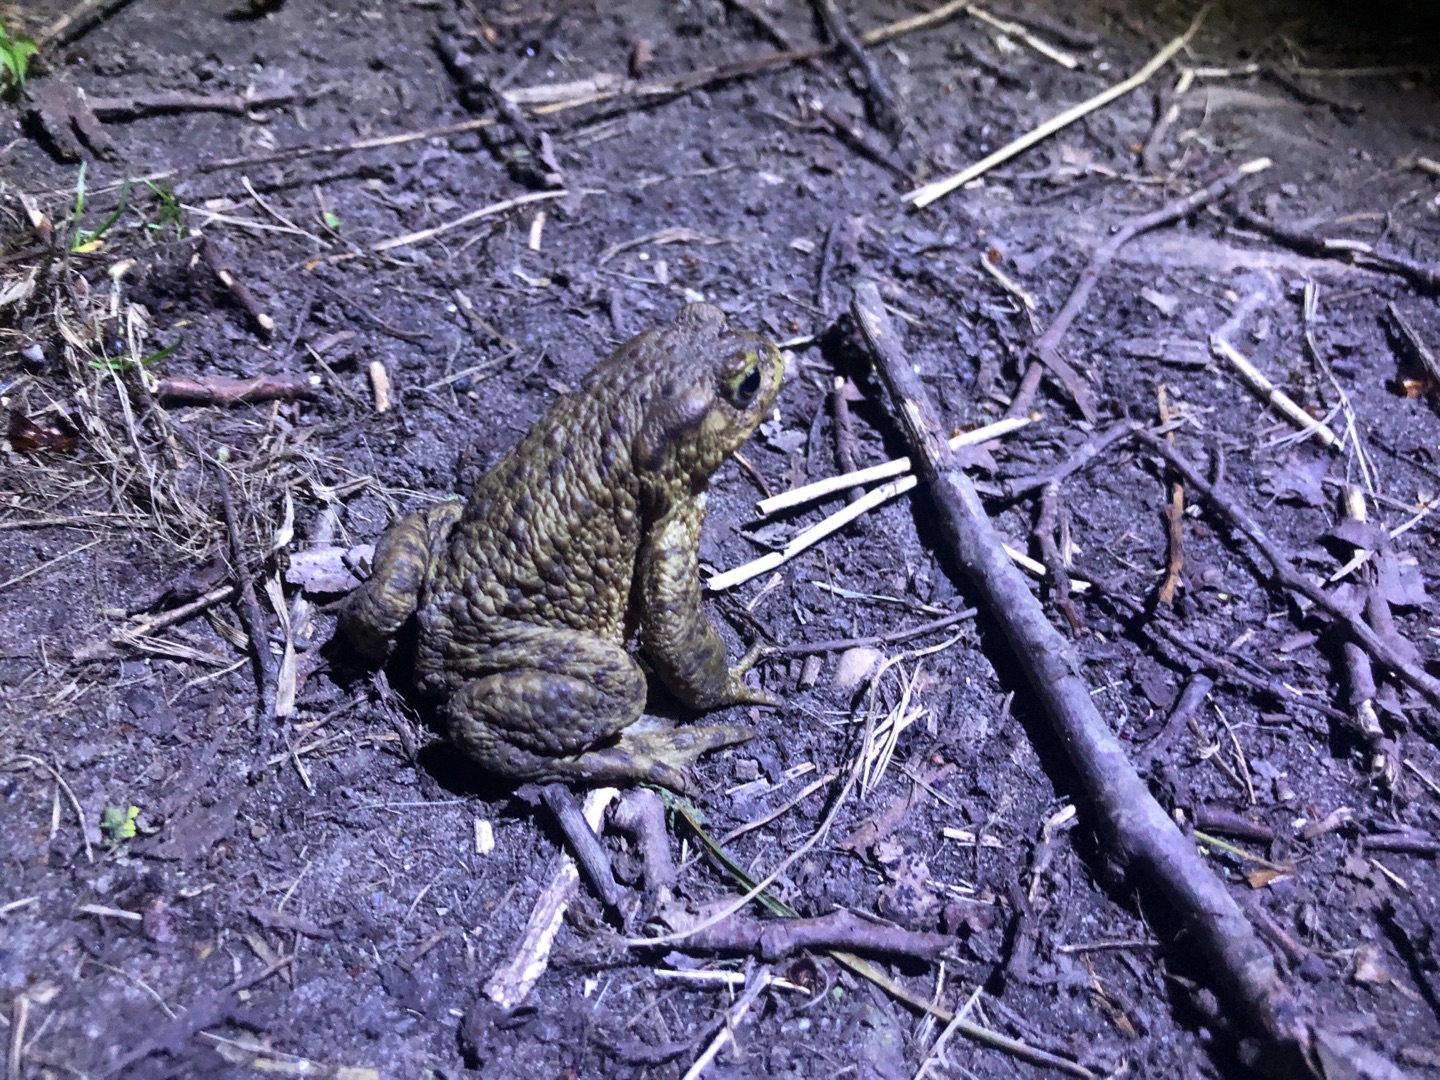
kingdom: Animalia
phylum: Chordata
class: Amphibia
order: Anura
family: Bufonidae
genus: Bufo
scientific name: Bufo bufo
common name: Skrubtudse
